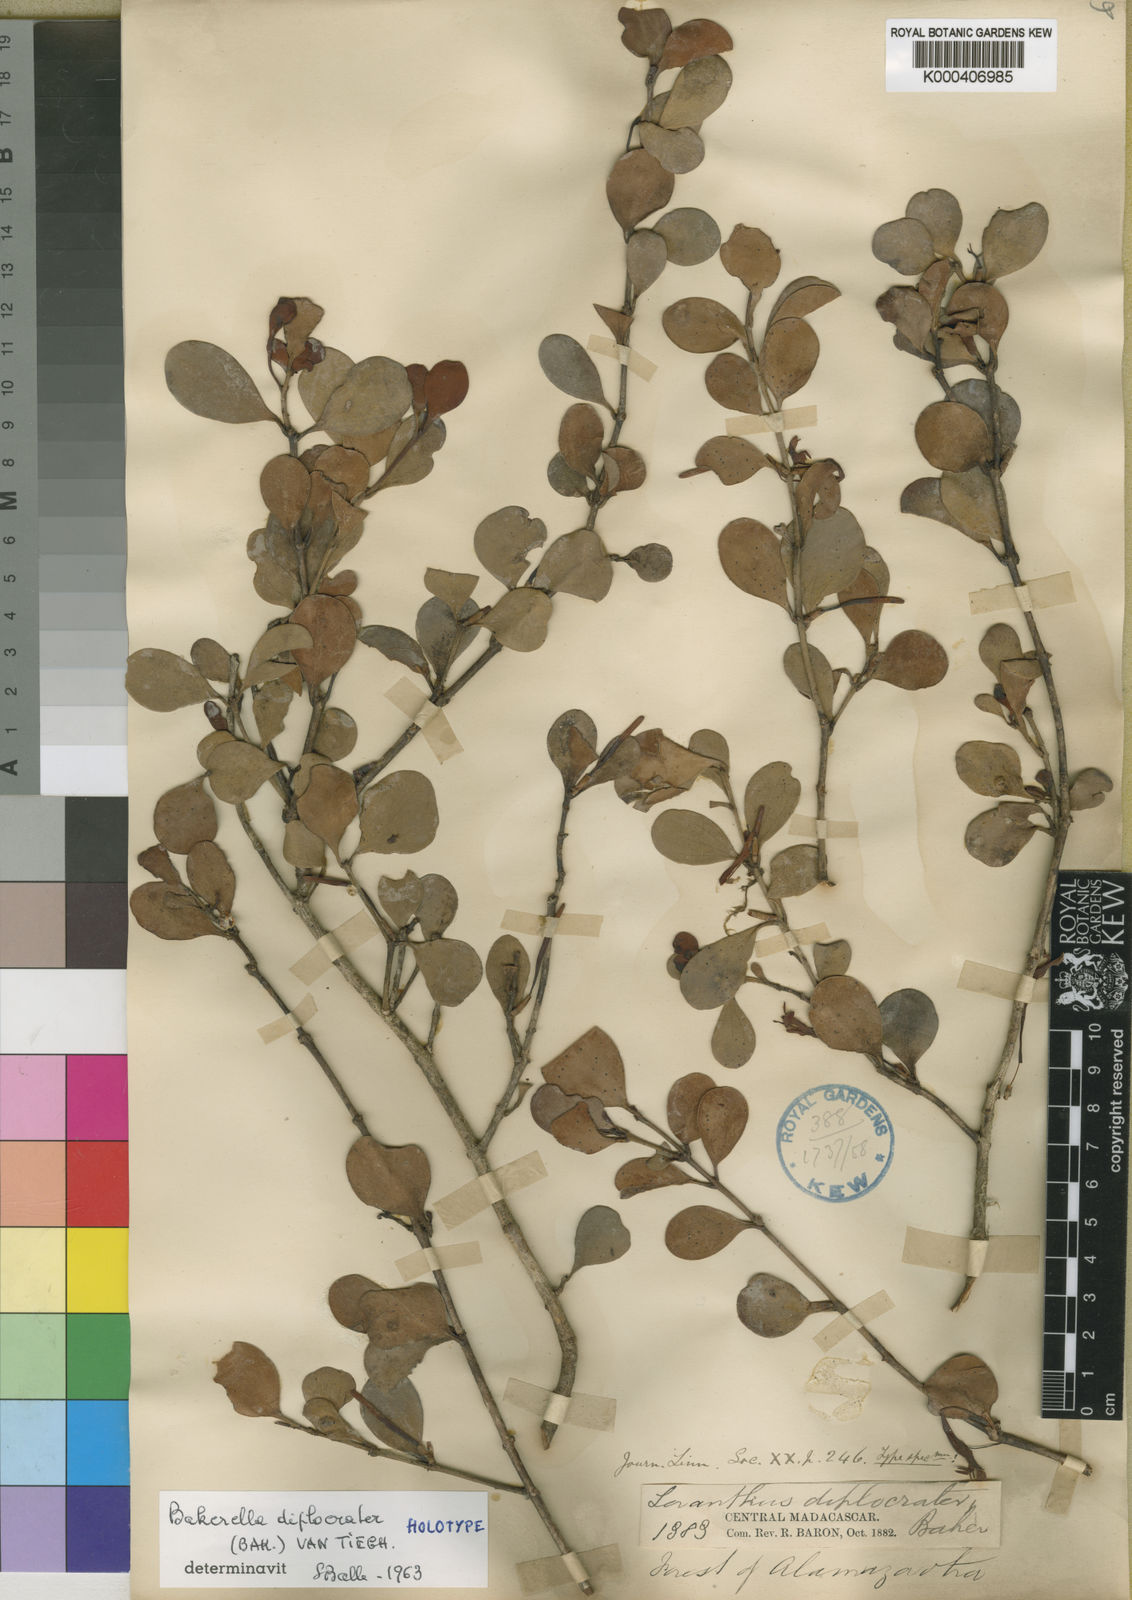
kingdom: Plantae
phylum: Tracheophyta
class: Magnoliopsida
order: Santalales
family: Loranthaceae
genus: Bakerella
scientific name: Bakerella diplocrater
